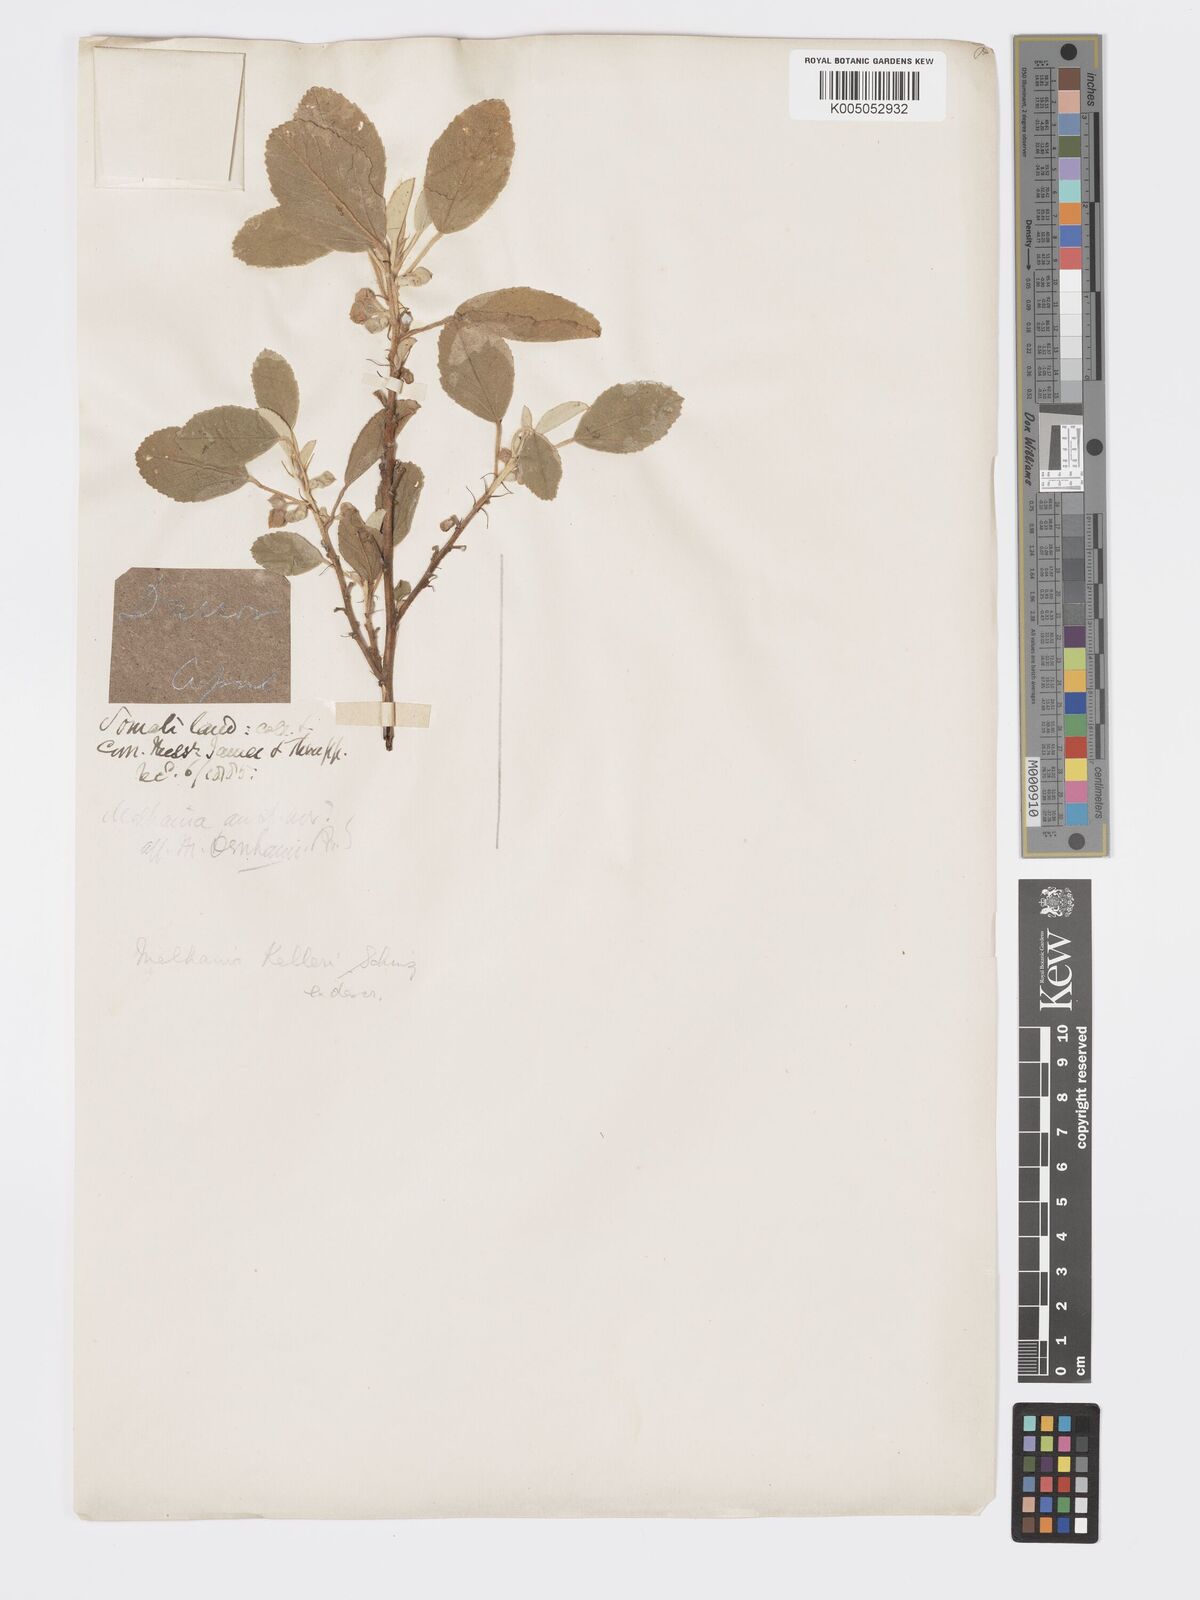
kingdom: Plantae
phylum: Tracheophyta
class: Magnoliopsida
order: Malvales
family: Malvaceae
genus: Melhania
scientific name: Melhania kelleri
